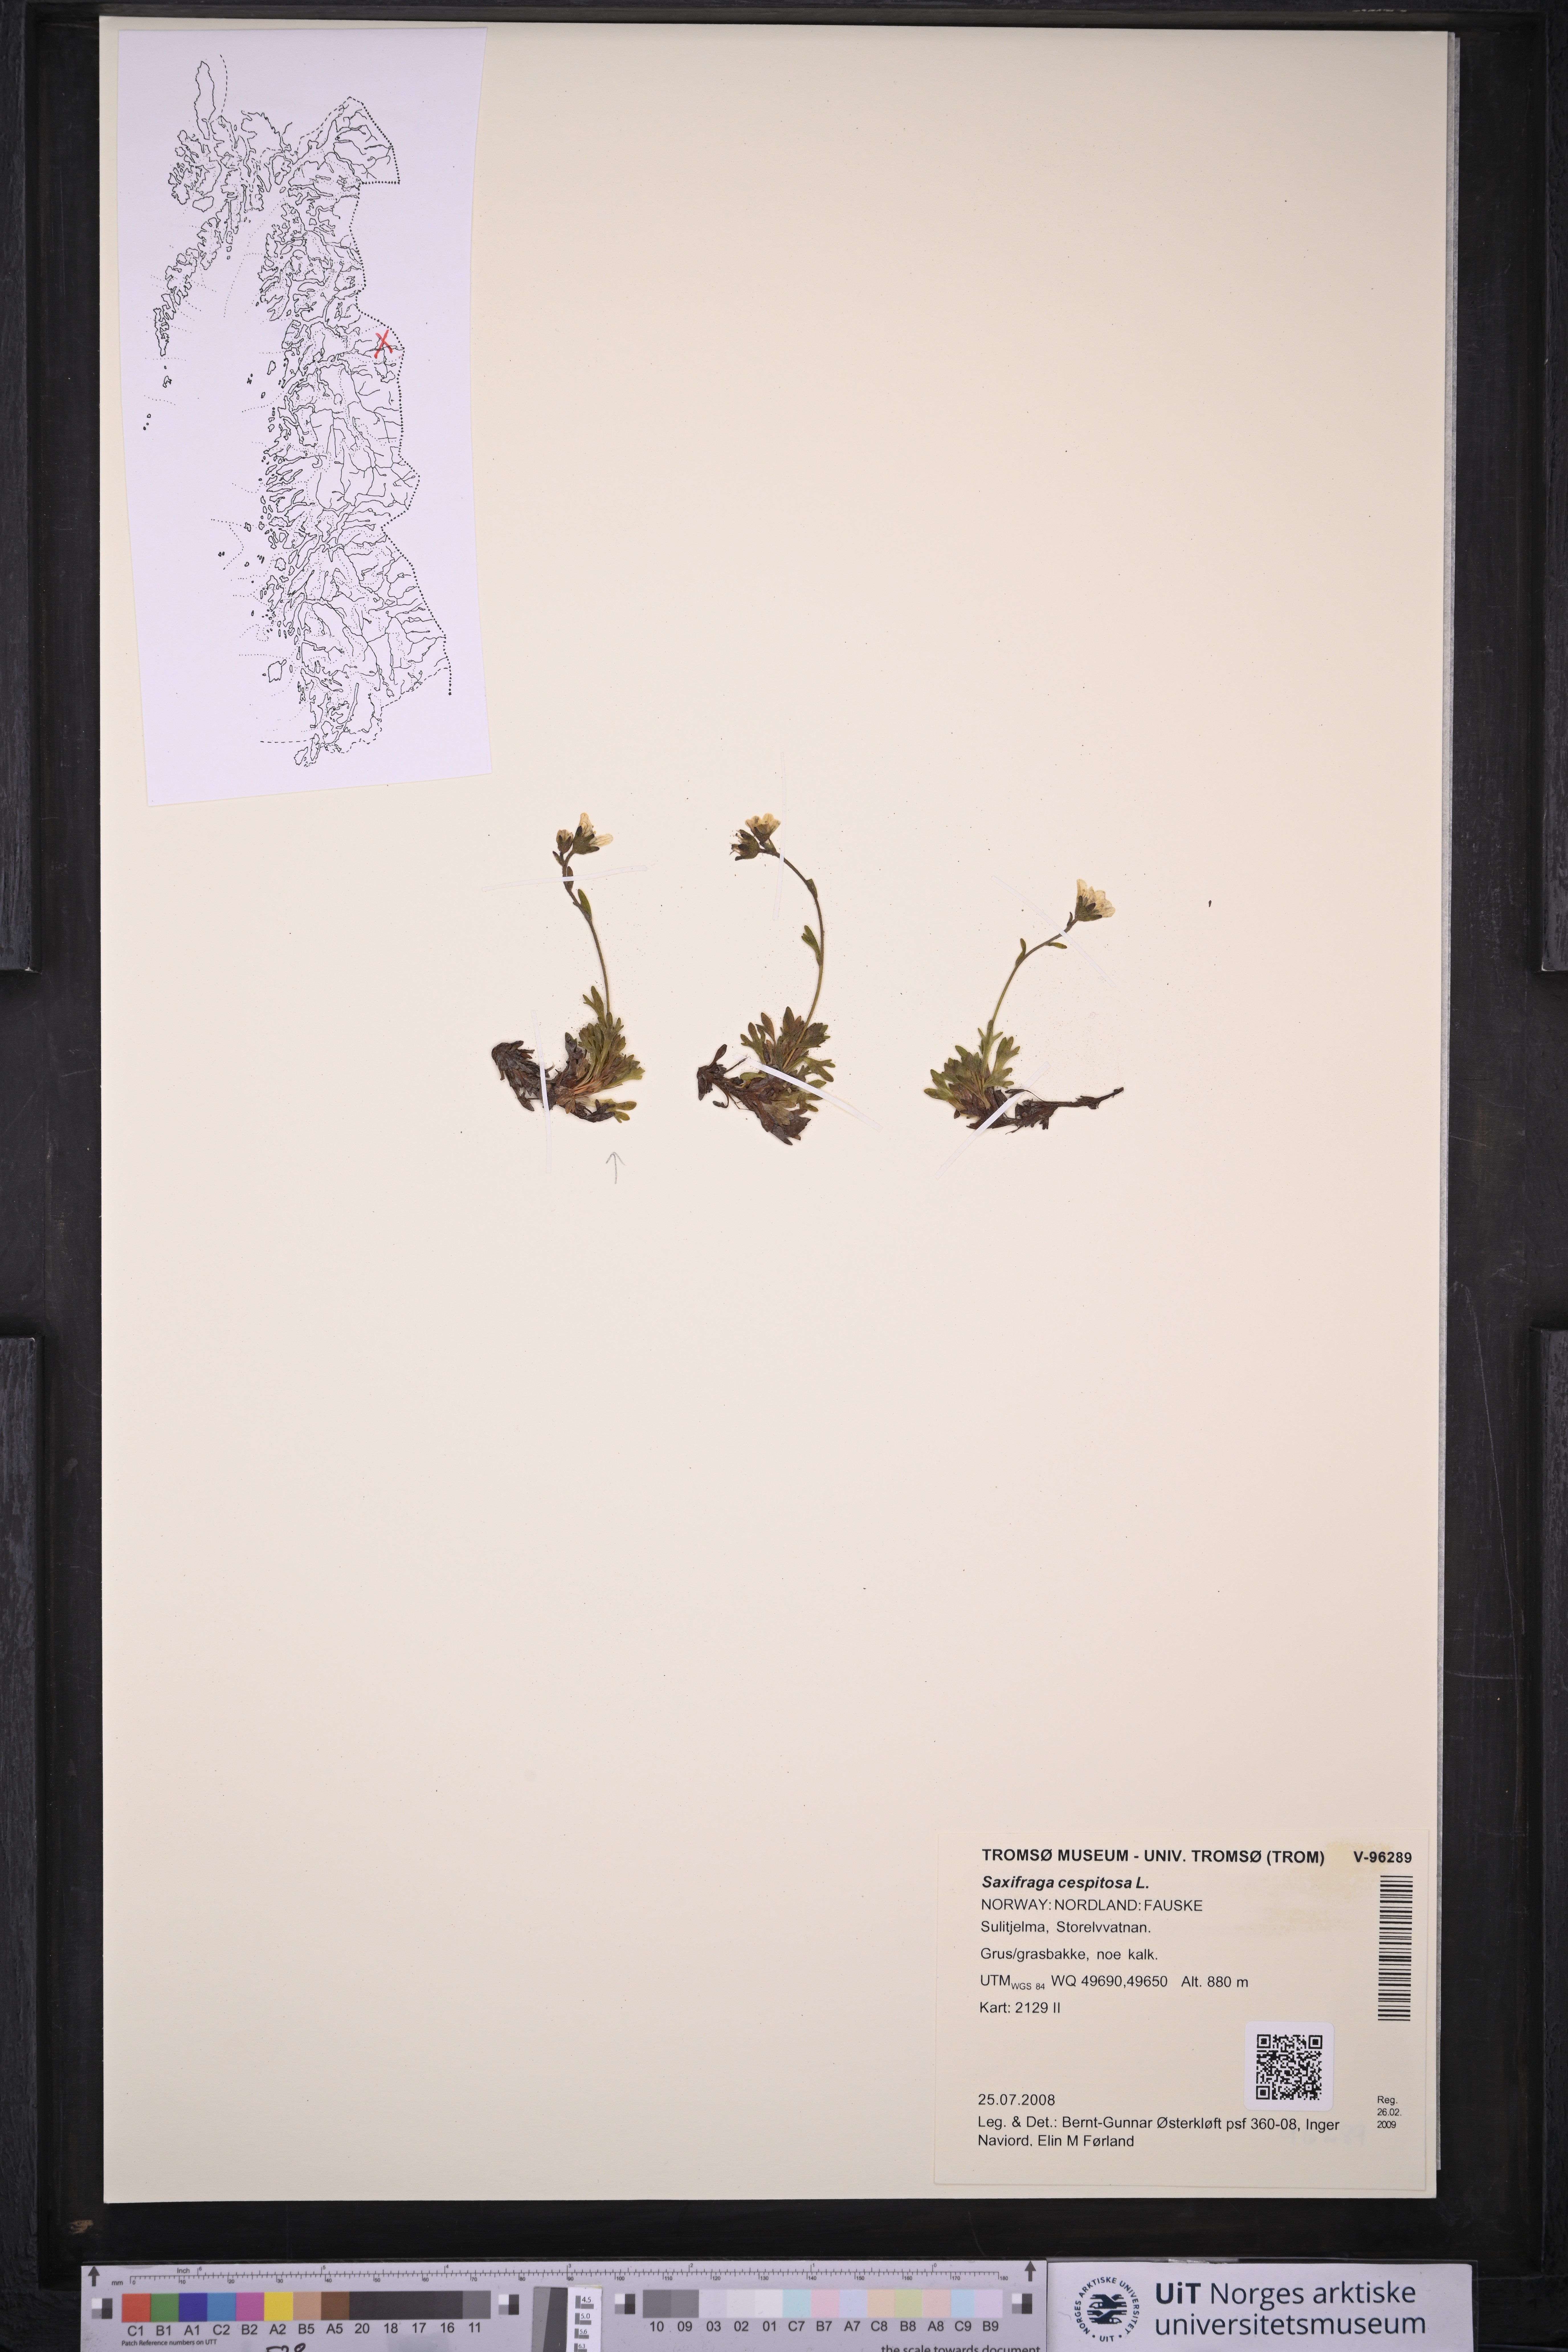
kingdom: Plantae
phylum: Tracheophyta
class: Magnoliopsida
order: Saxifragales
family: Saxifragaceae
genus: Saxifraga
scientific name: Saxifraga cespitosa
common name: Tufted saxifrage
